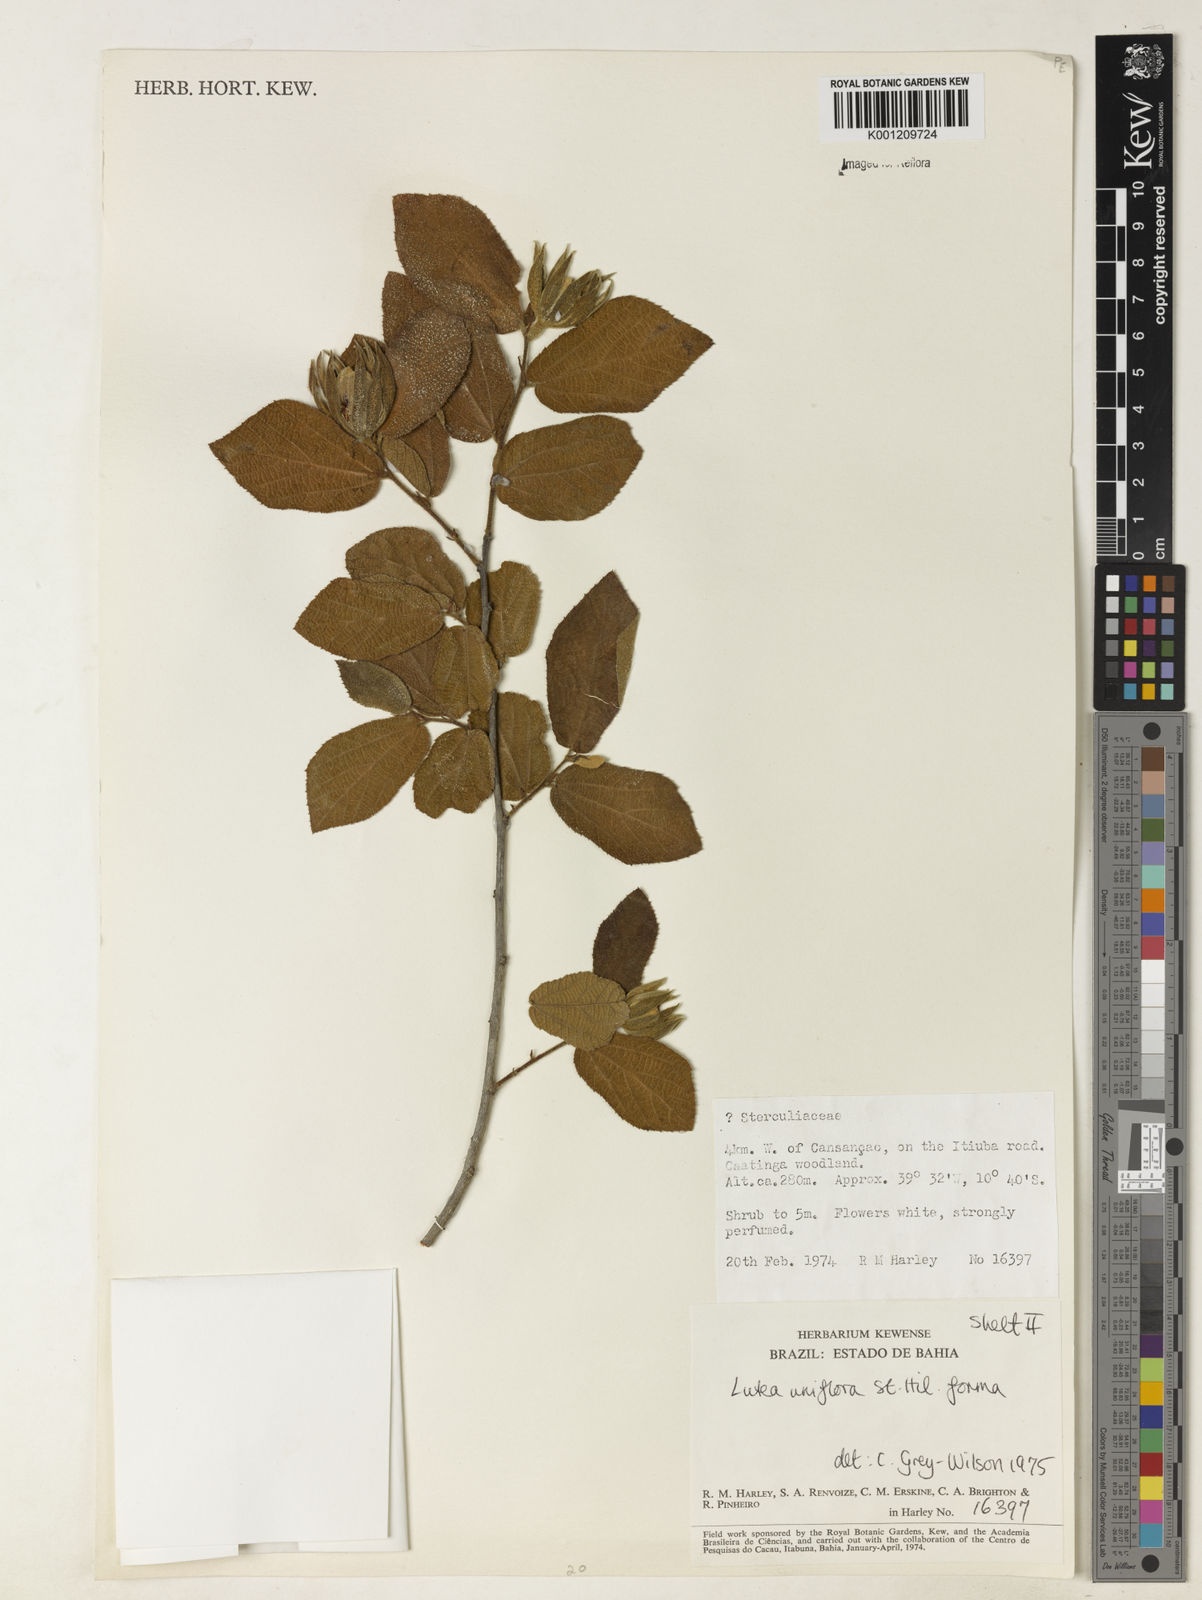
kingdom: Plantae
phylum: Tracheophyta
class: Magnoliopsida
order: Malvales
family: Malvaceae
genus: Luehea
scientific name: Luehea candicans
